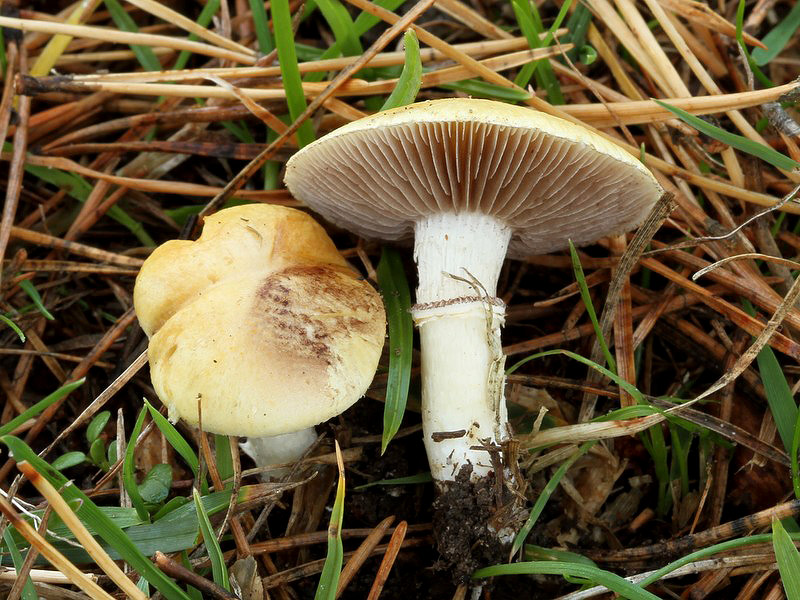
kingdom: Fungi
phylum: Basidiomycota
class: Agaricomycetes
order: Agaricales
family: Hymenogastraceae
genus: Psilocybe
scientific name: Psilocybe coronilla
